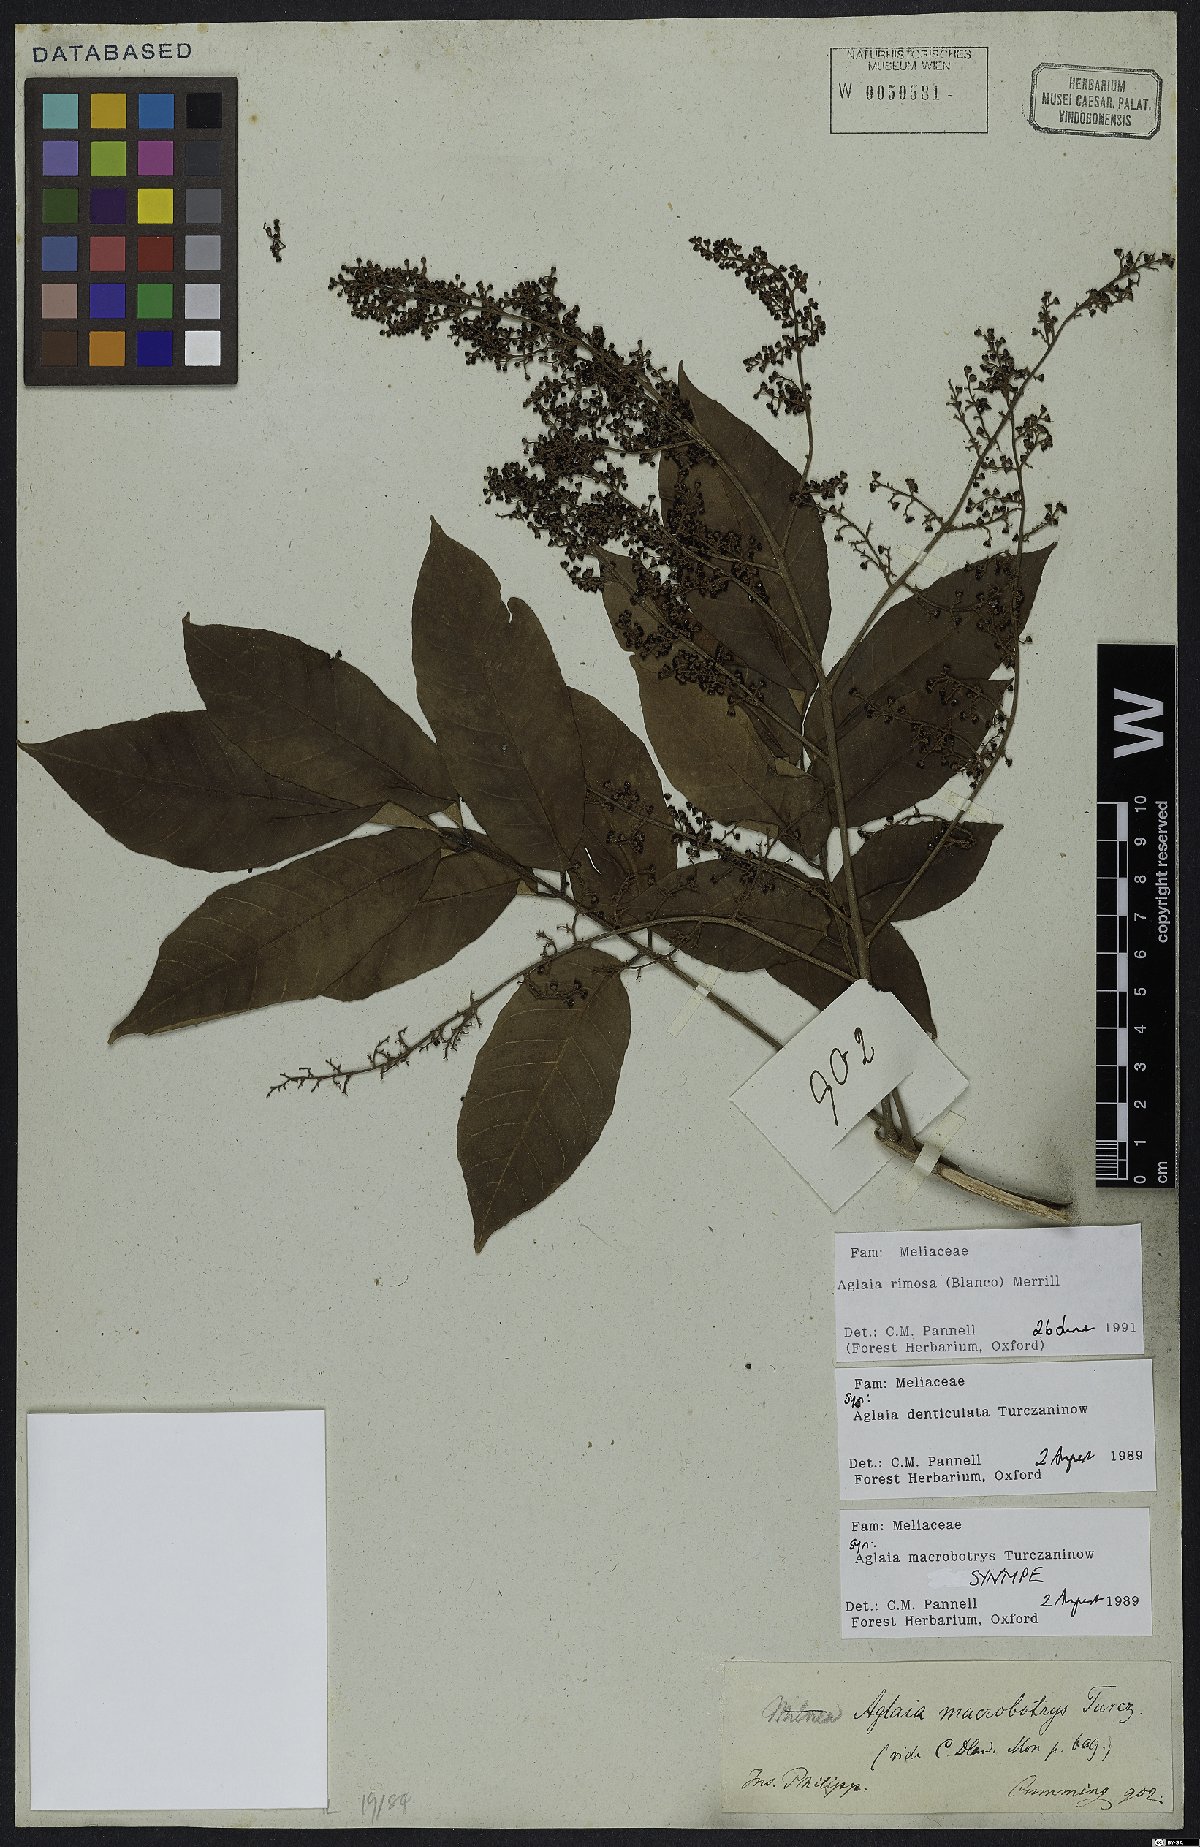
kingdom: Plantae
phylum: Tracheophyta
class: Magnoliopsida
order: Sapindales
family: Meliaceae
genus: Aglaia
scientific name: Aglaia rimosa
